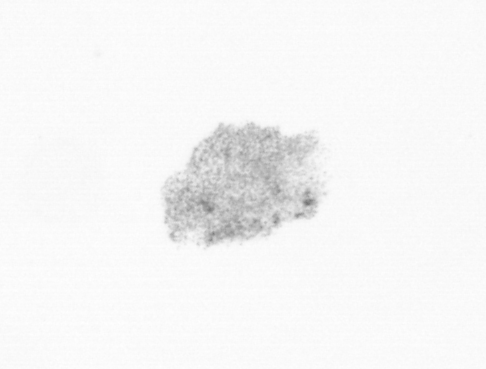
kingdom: Chromista
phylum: Ochrophyta
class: Bacillariophyceae
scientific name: Bacillariophyceae
